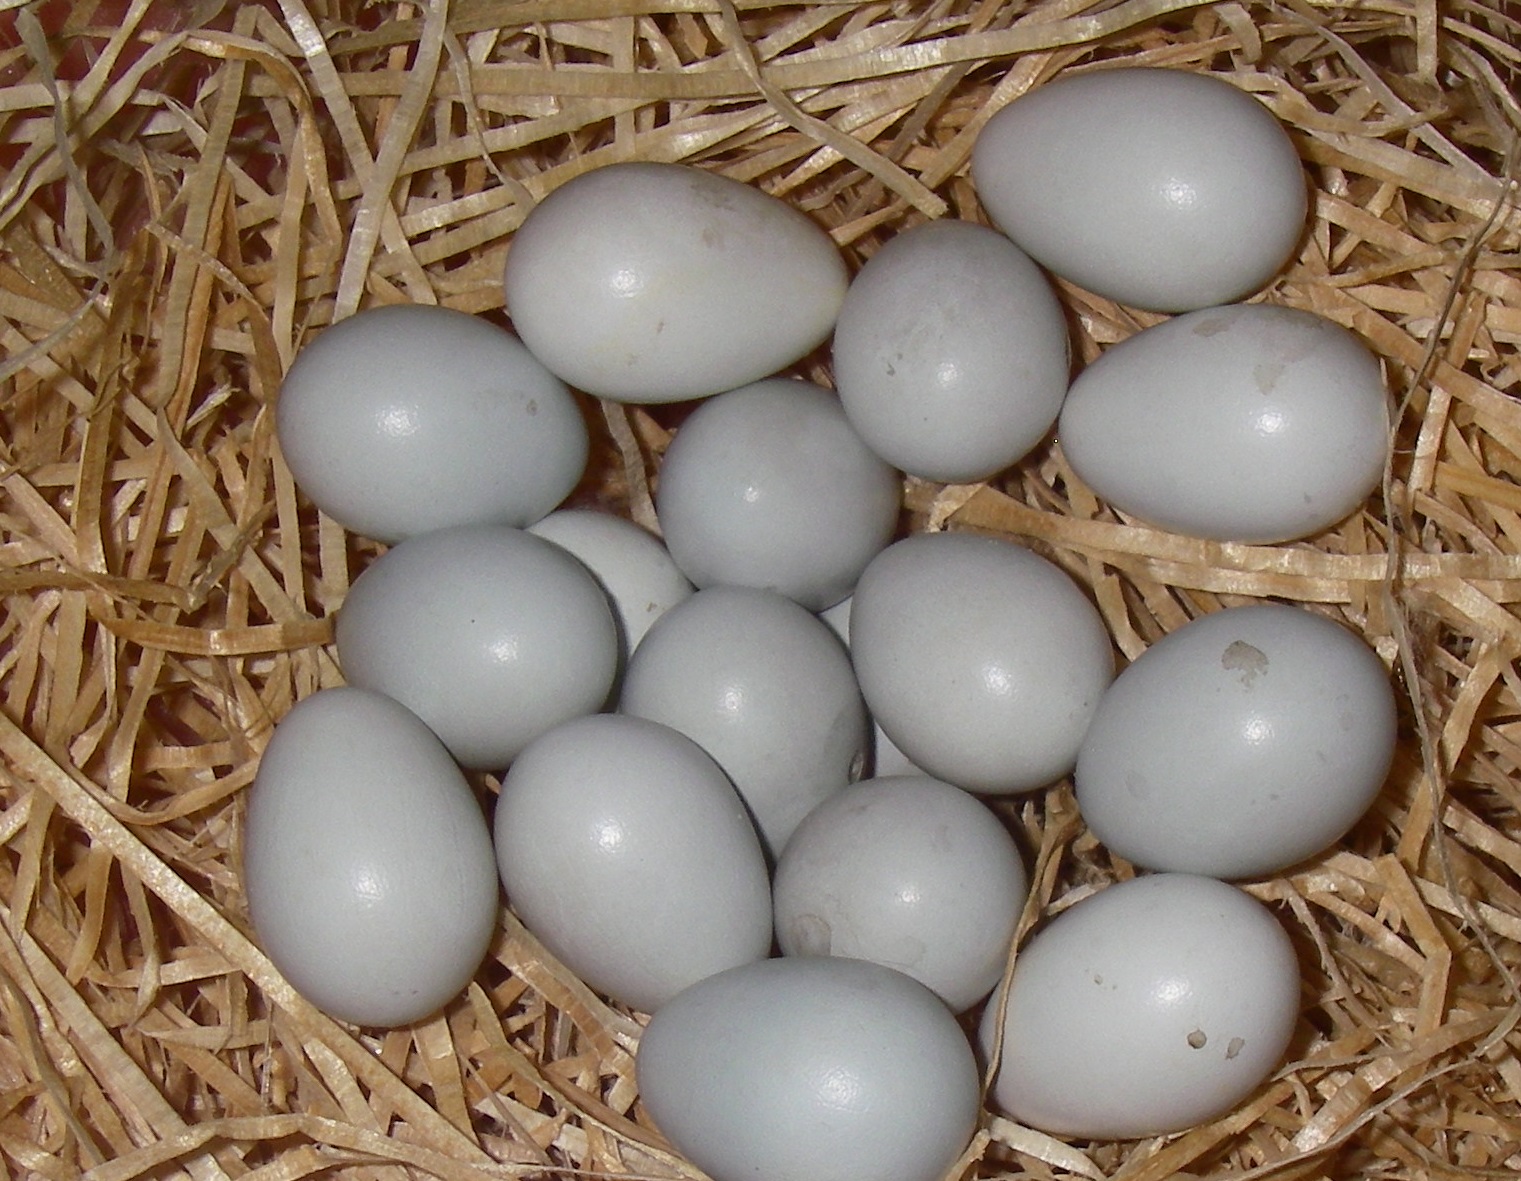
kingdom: Animalia
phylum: Chordata
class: Aves
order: Passeriformes
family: Sturnidae
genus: Sturnus
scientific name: Sturnus vulgaris
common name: Common starling
